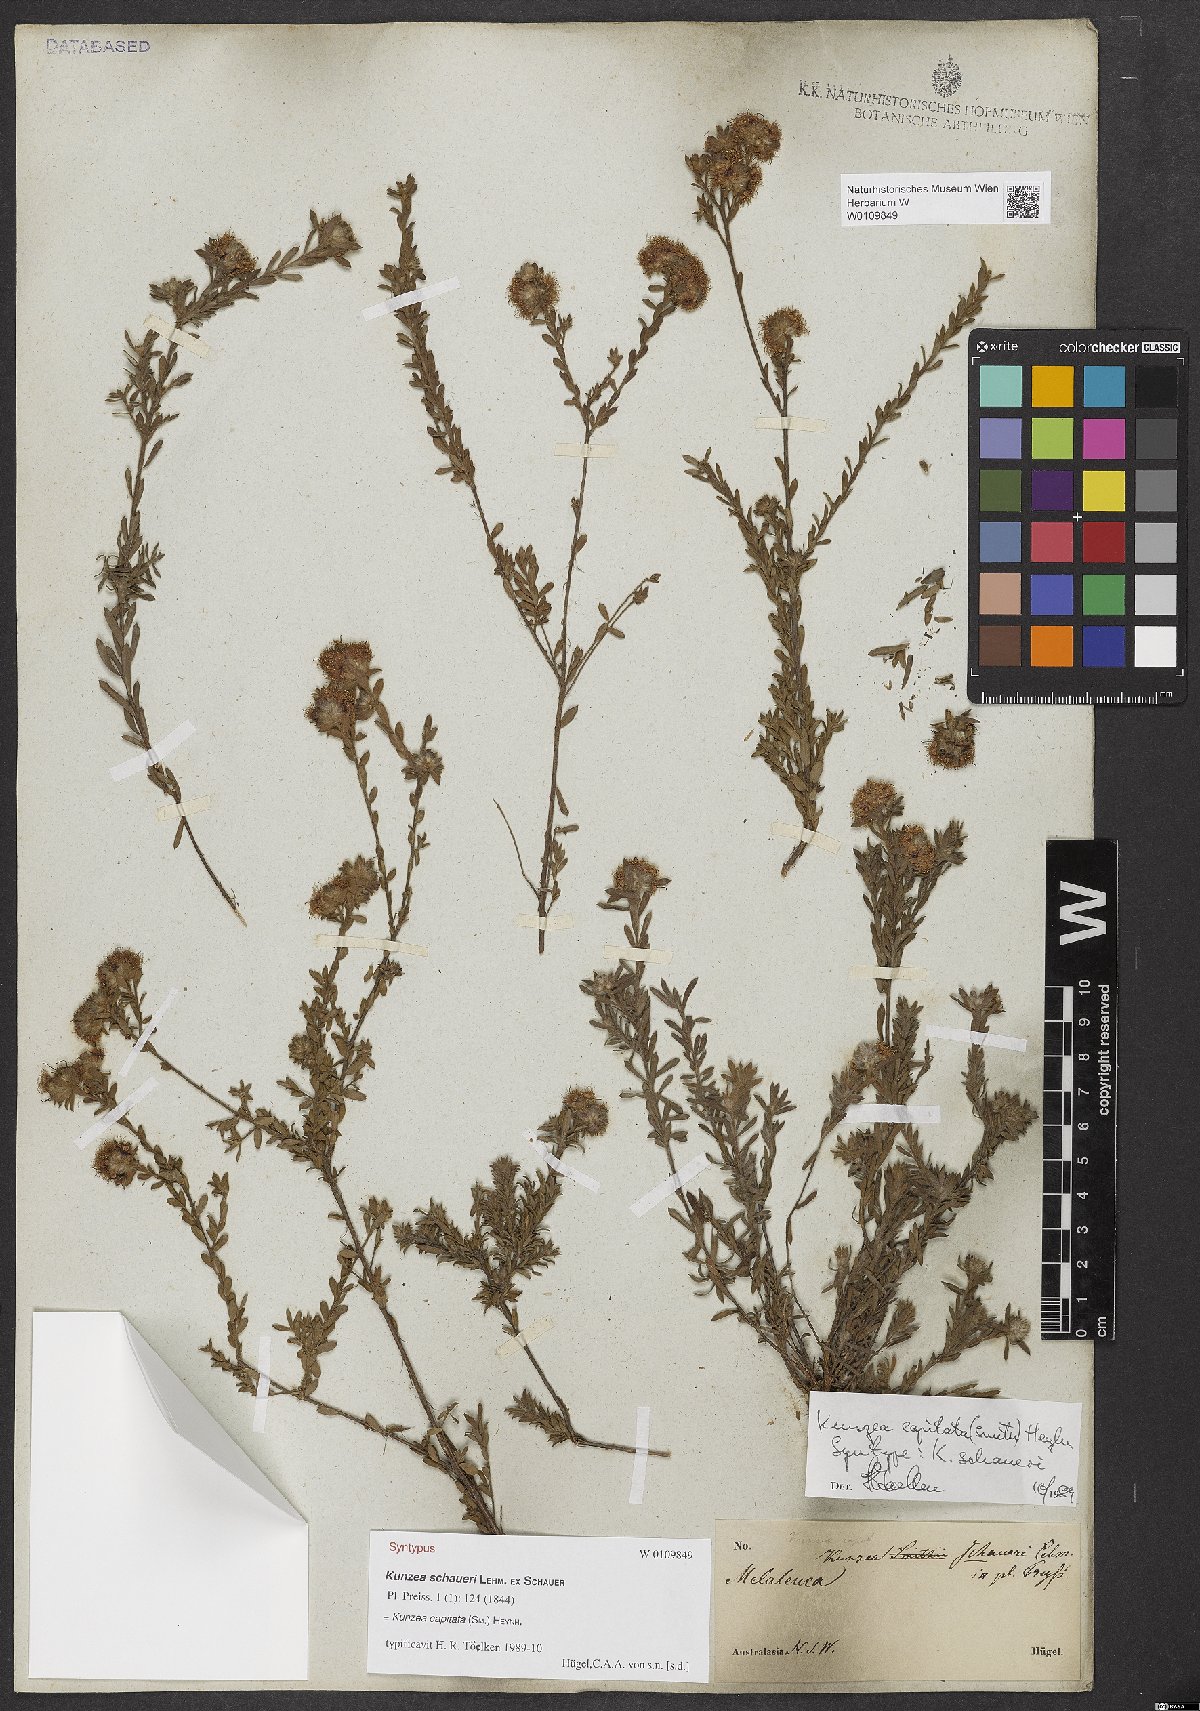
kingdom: Plantae
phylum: Tracheophyta
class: Magnoliopsida
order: Myrtales
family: Myrtaceae
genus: Kunzea
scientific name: Kunzea capitata
